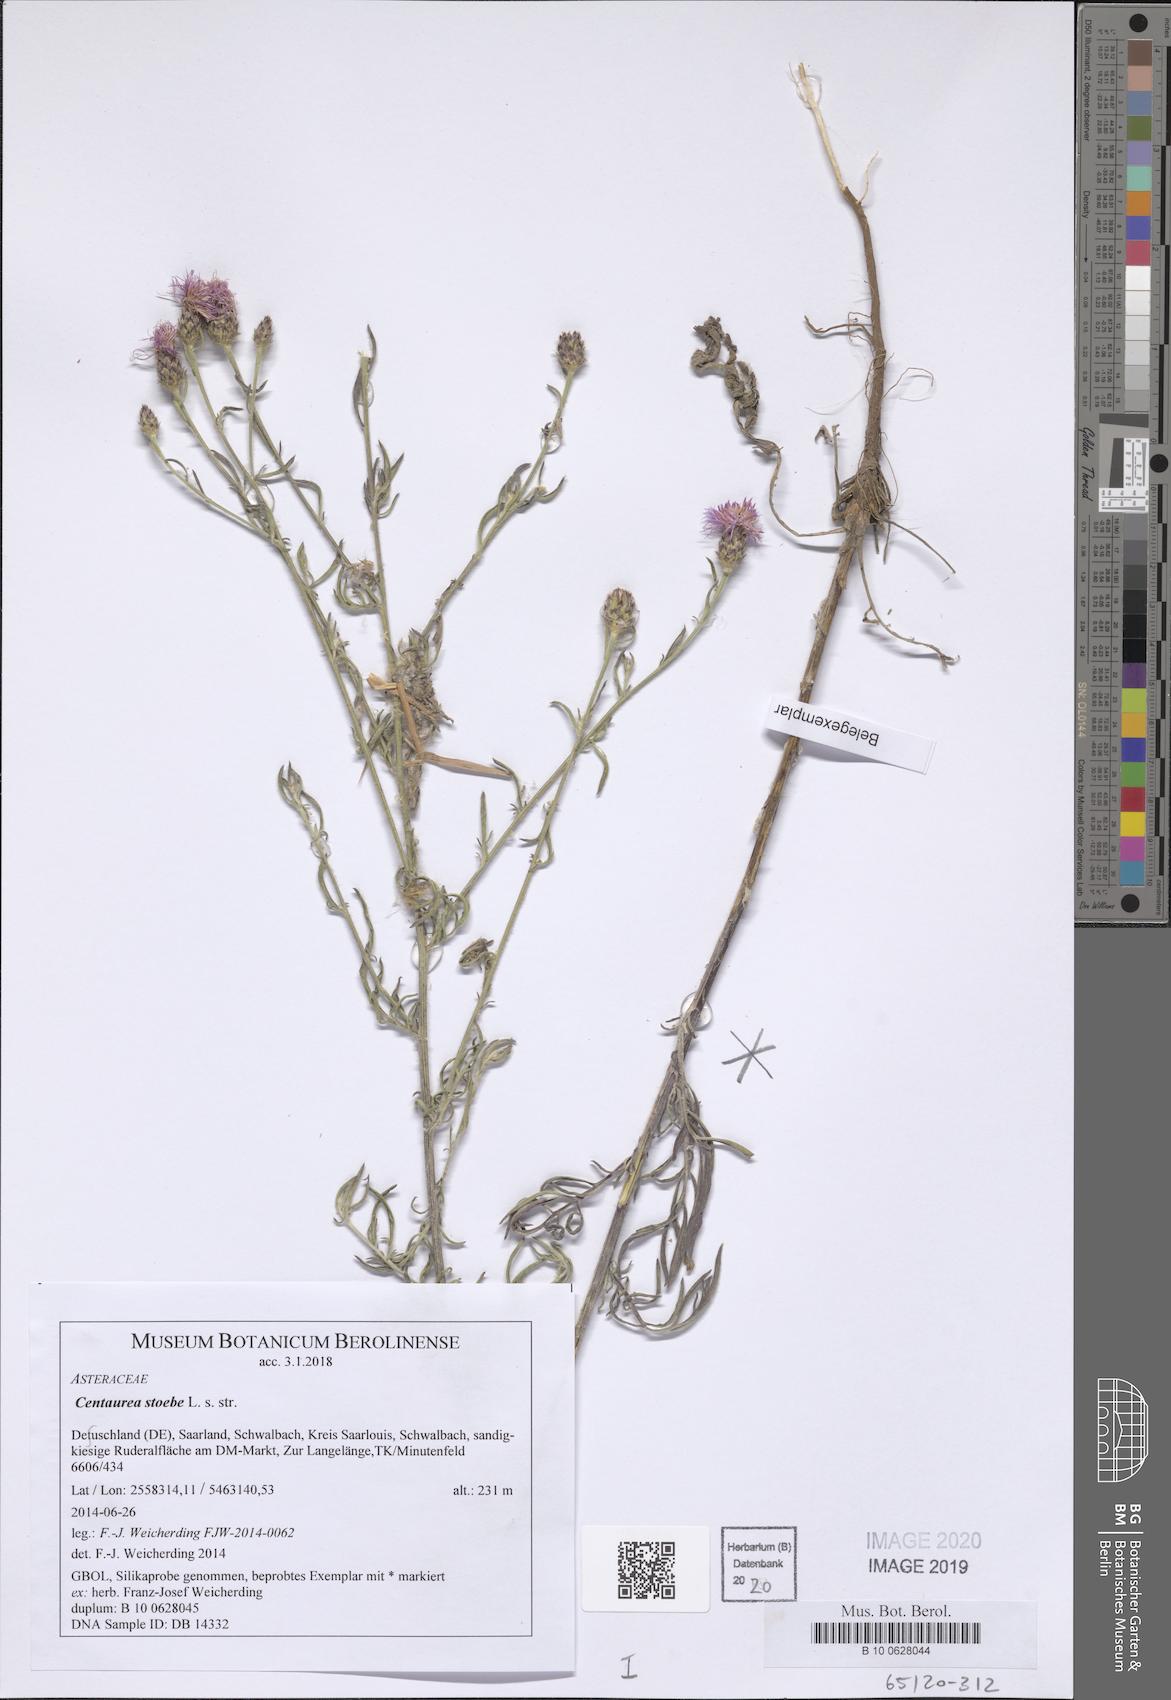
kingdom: Plantae
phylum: Tracheophyta
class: Magnoliopsida
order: Asterales
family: Asteraceae
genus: Centaurea
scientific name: Centaurea stoebe
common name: Spotted knapweed
